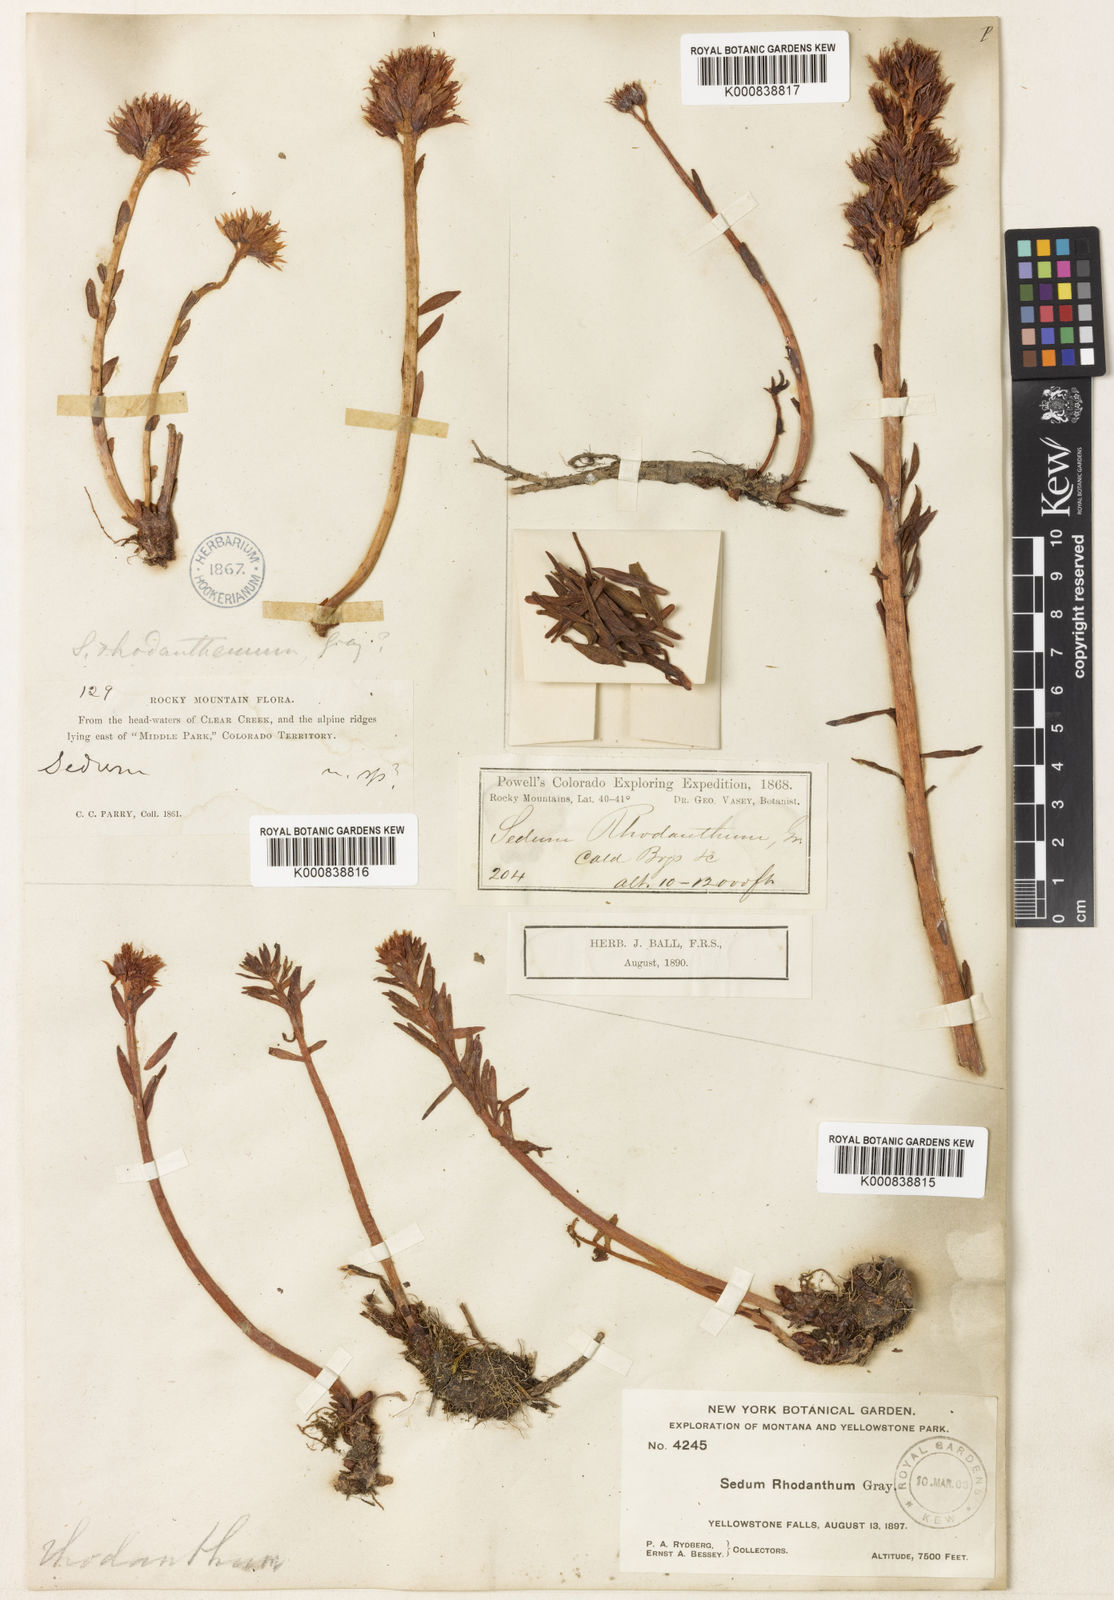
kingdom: Plantae
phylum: Tracheophyta
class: Magnoliopsida
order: Saxifragales
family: Crassulaceae
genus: Rhodiola
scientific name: Rhodiola rhodantha
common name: Red orpine
